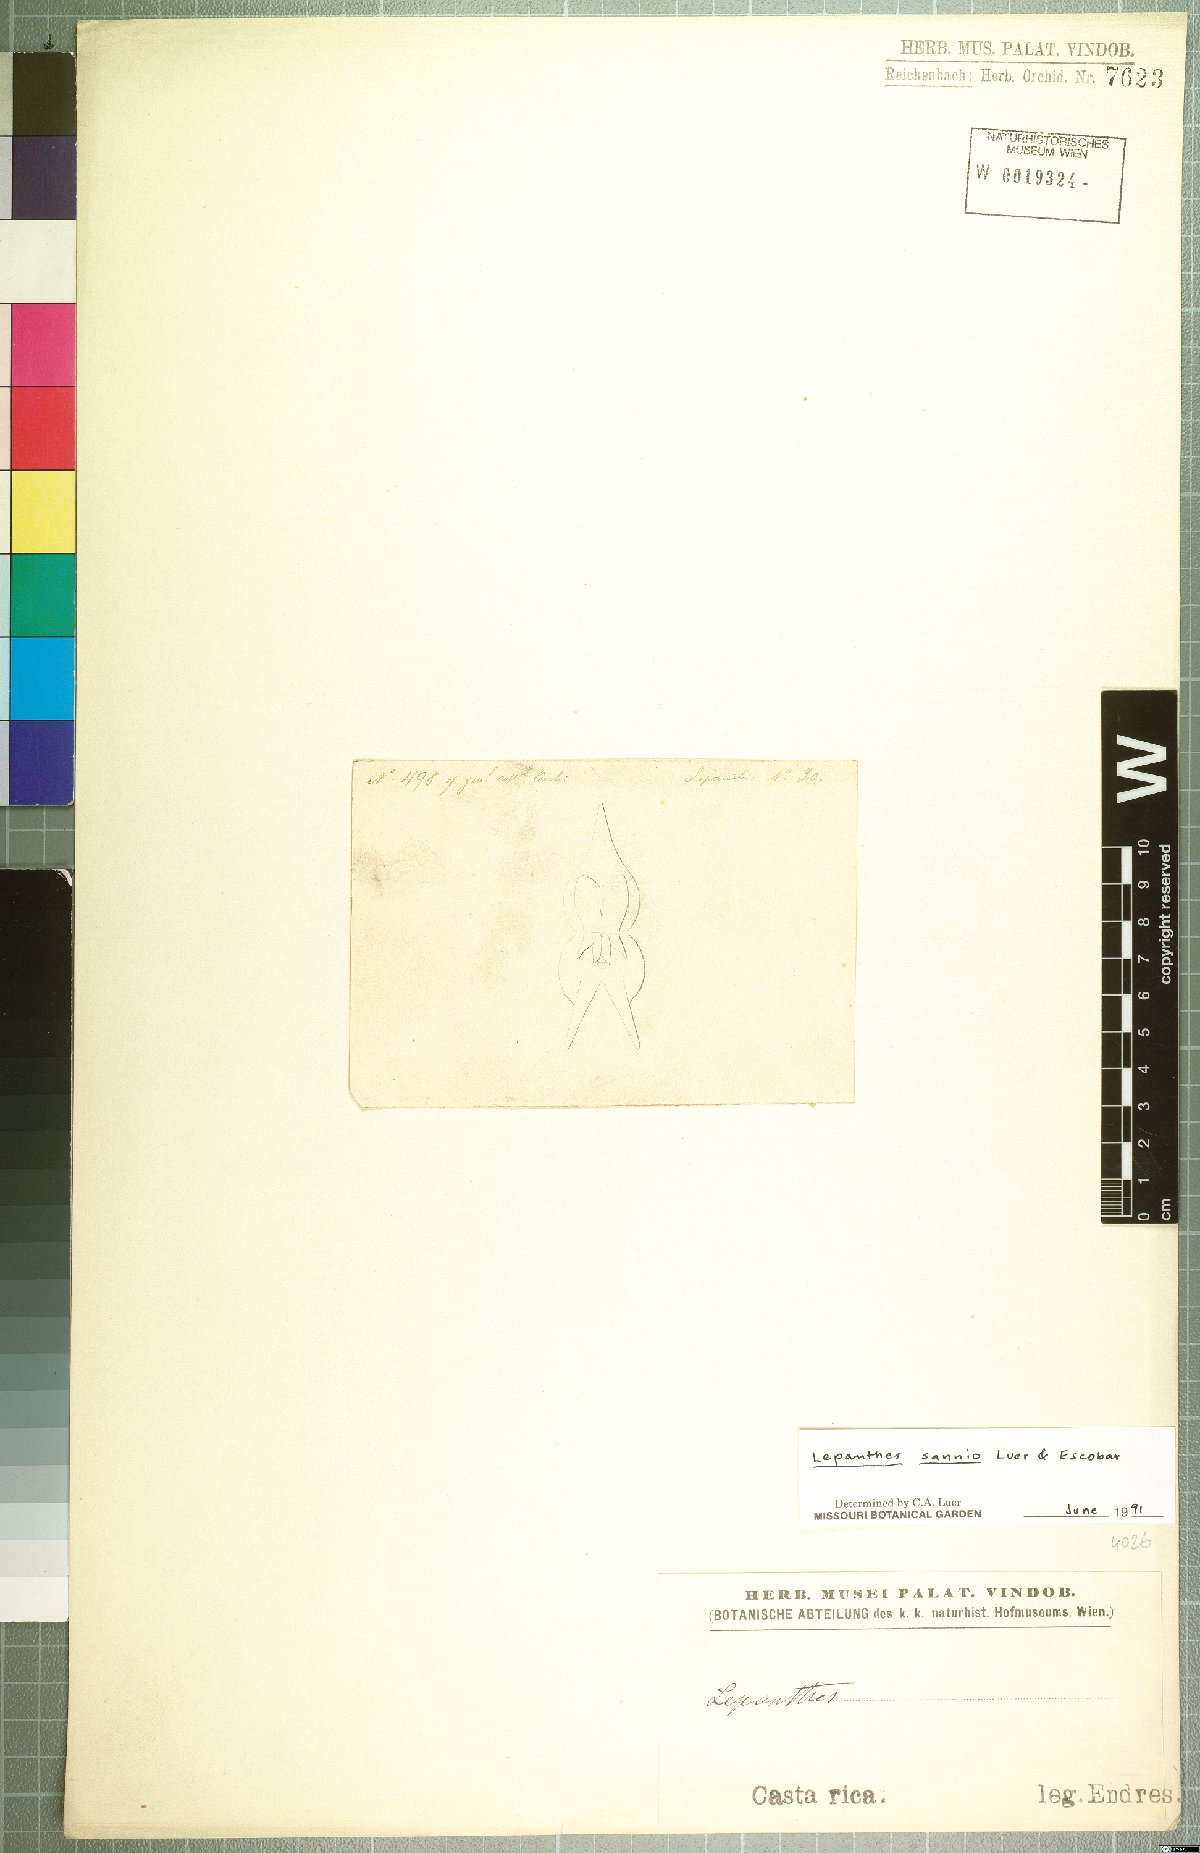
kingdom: Plantae
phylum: Tracheophyta
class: Liliopsida
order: Asparagales
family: Orchidaceae
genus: Lepanthes
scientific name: Lepanthes sannio
